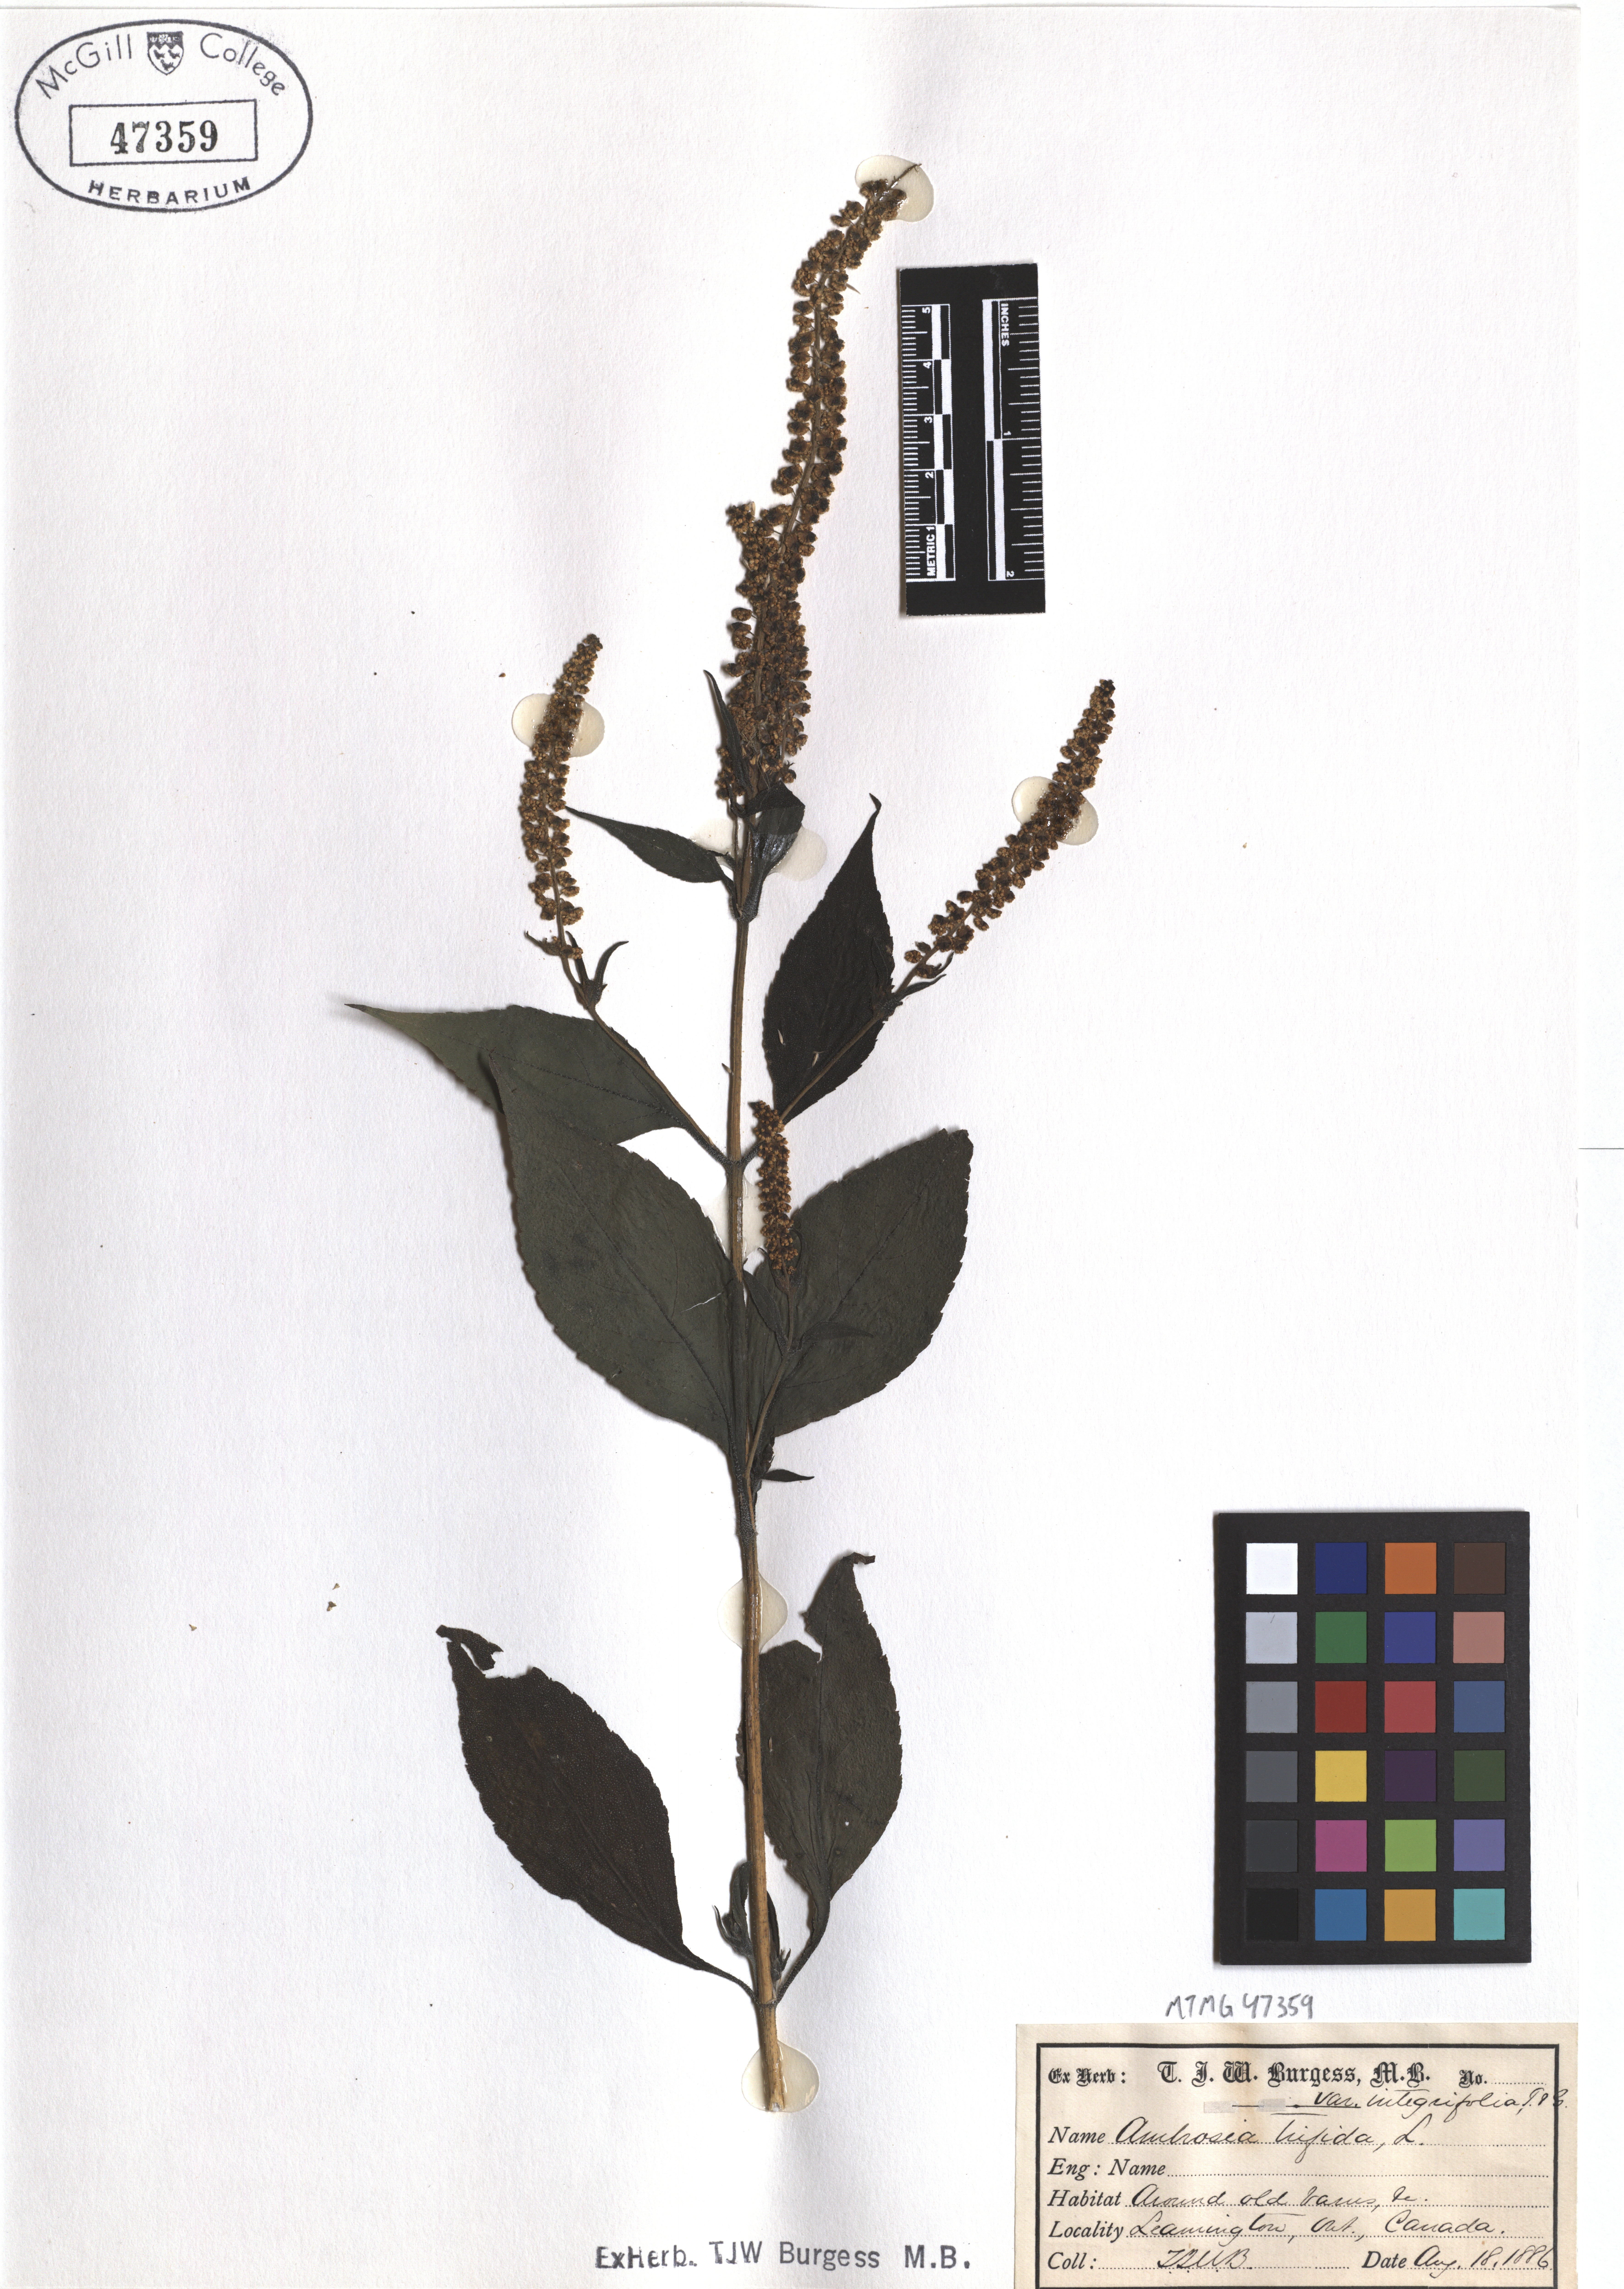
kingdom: Plantae
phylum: Tracheophyta
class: Magnoliopsida
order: Asterales
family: Asteraceae
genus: Ambrosia
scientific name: Ambrosia trifida
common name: Giant ragweed
